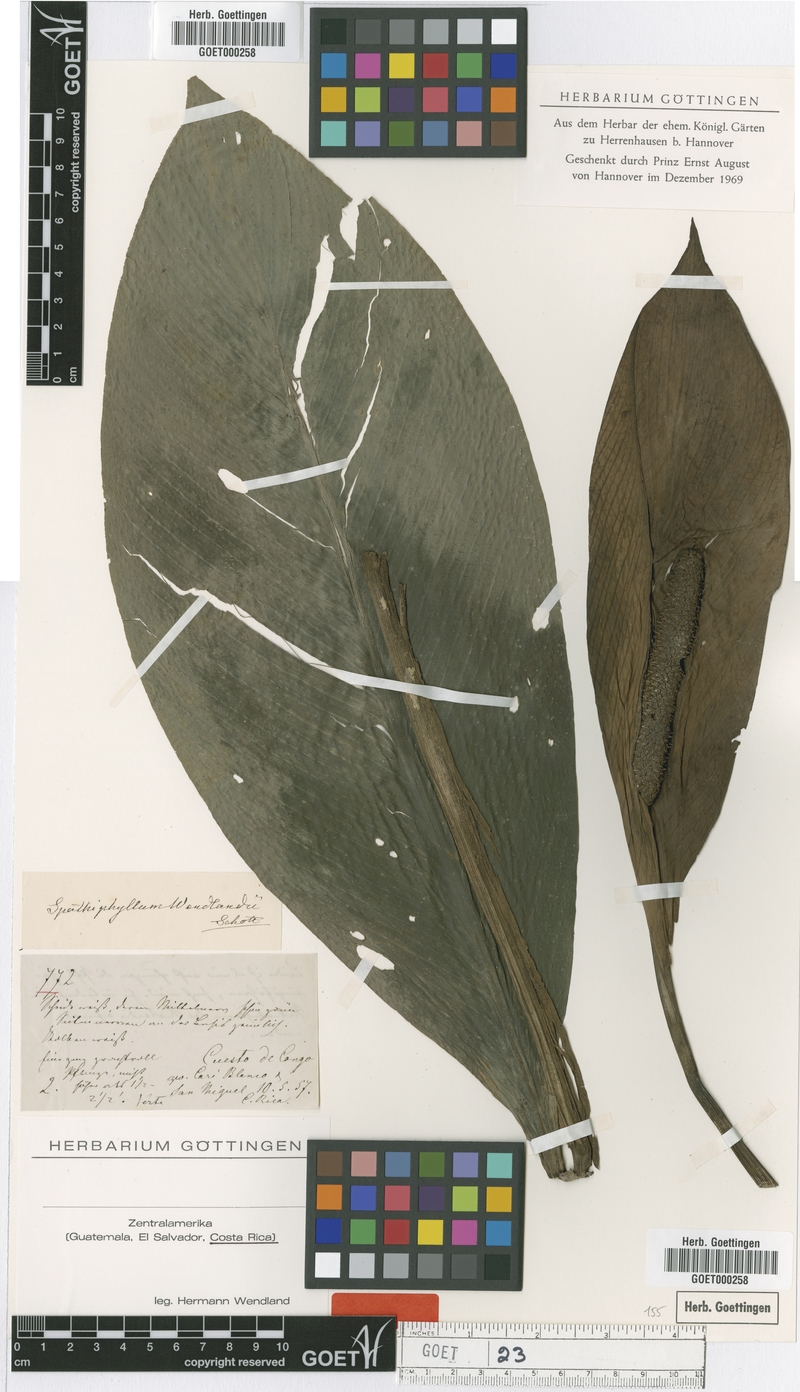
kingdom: Plantae
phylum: Tracheophyta
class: Liliopsida
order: Alismatales
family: Araceae
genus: Spathiphyllum
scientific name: Spathiphyllum wendlandii
